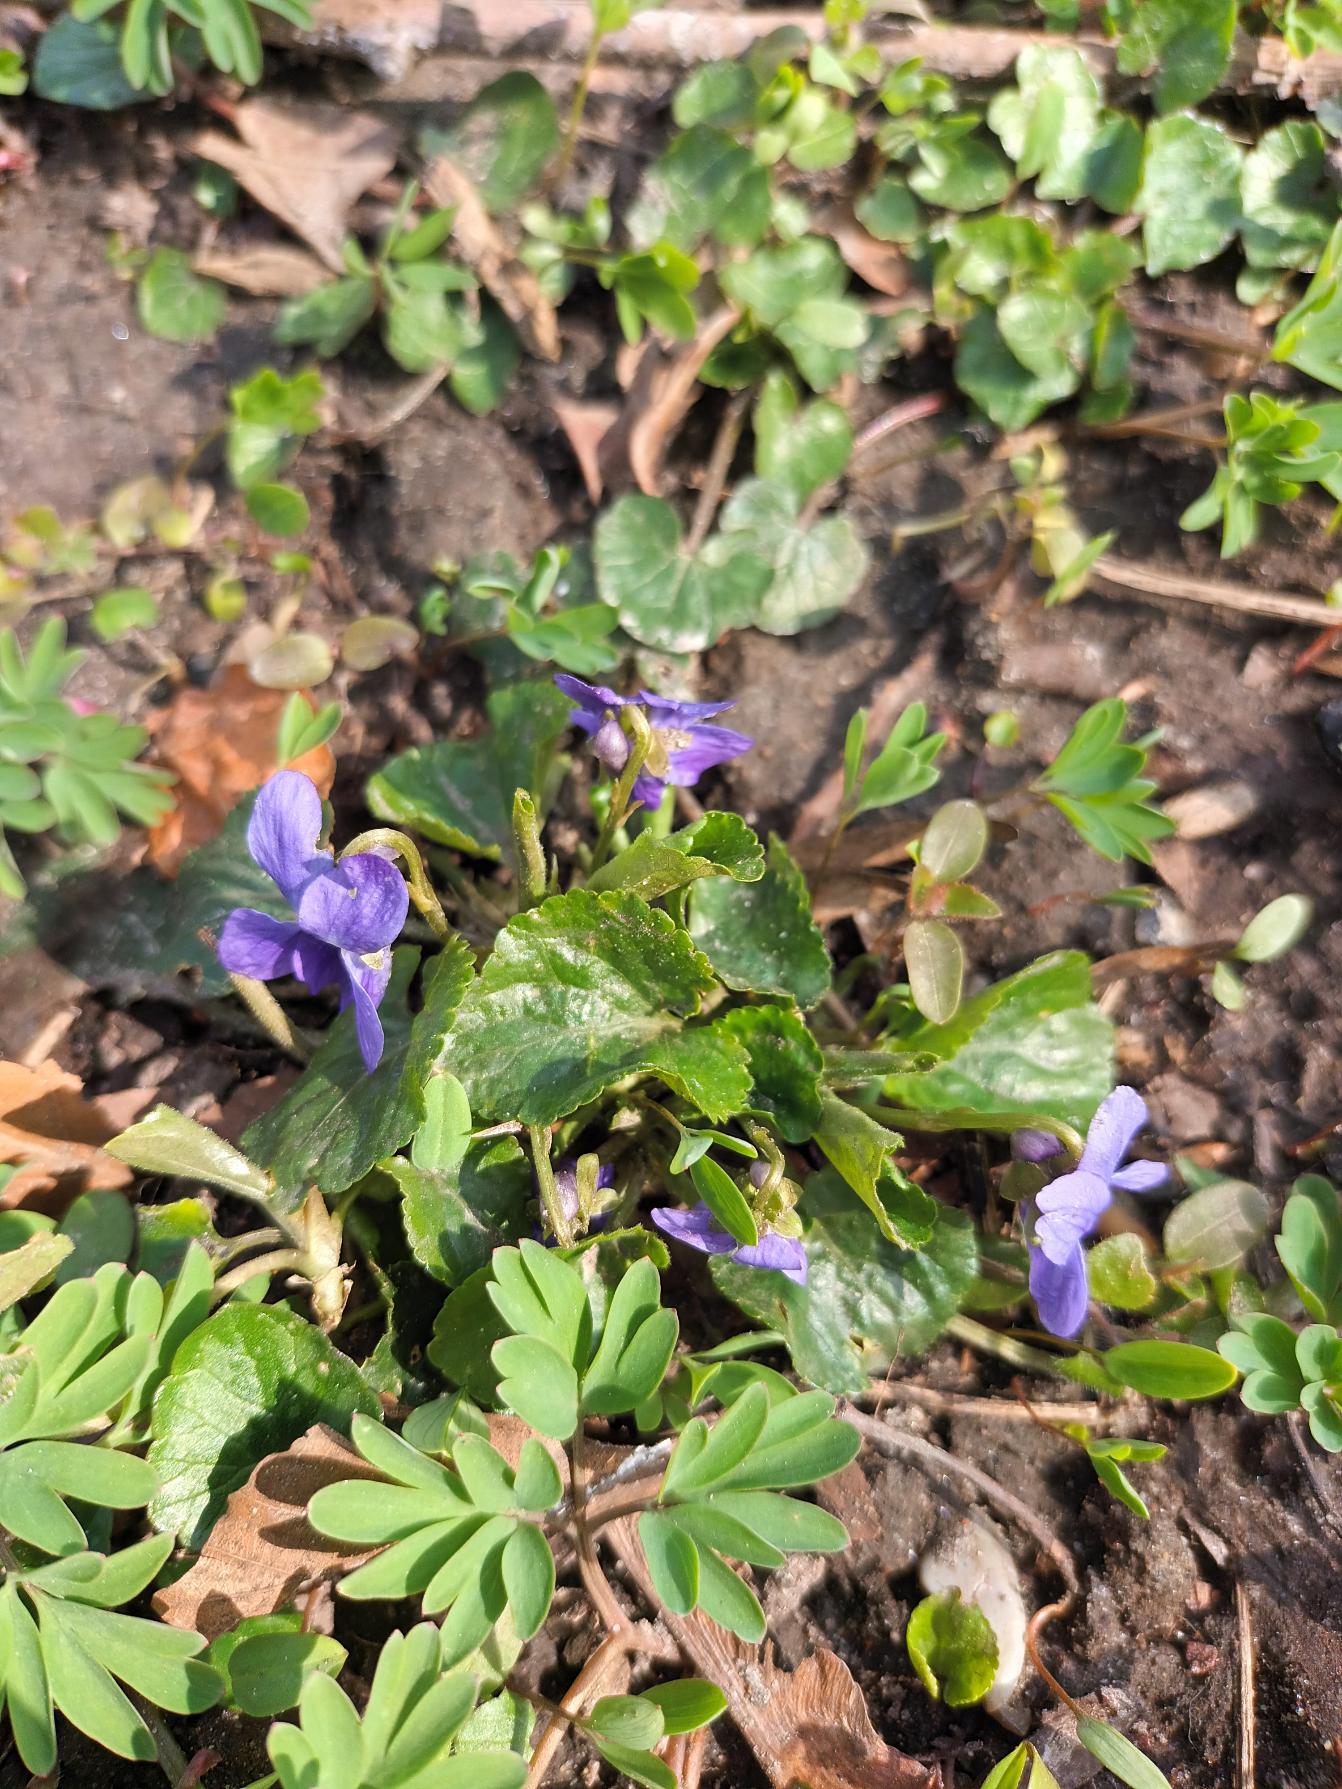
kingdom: Plantae
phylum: Tracheophyta
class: Magnoliopsida
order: Malpighiales
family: Violaceae
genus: Viola
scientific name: Viola odorata
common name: Marts-viol
